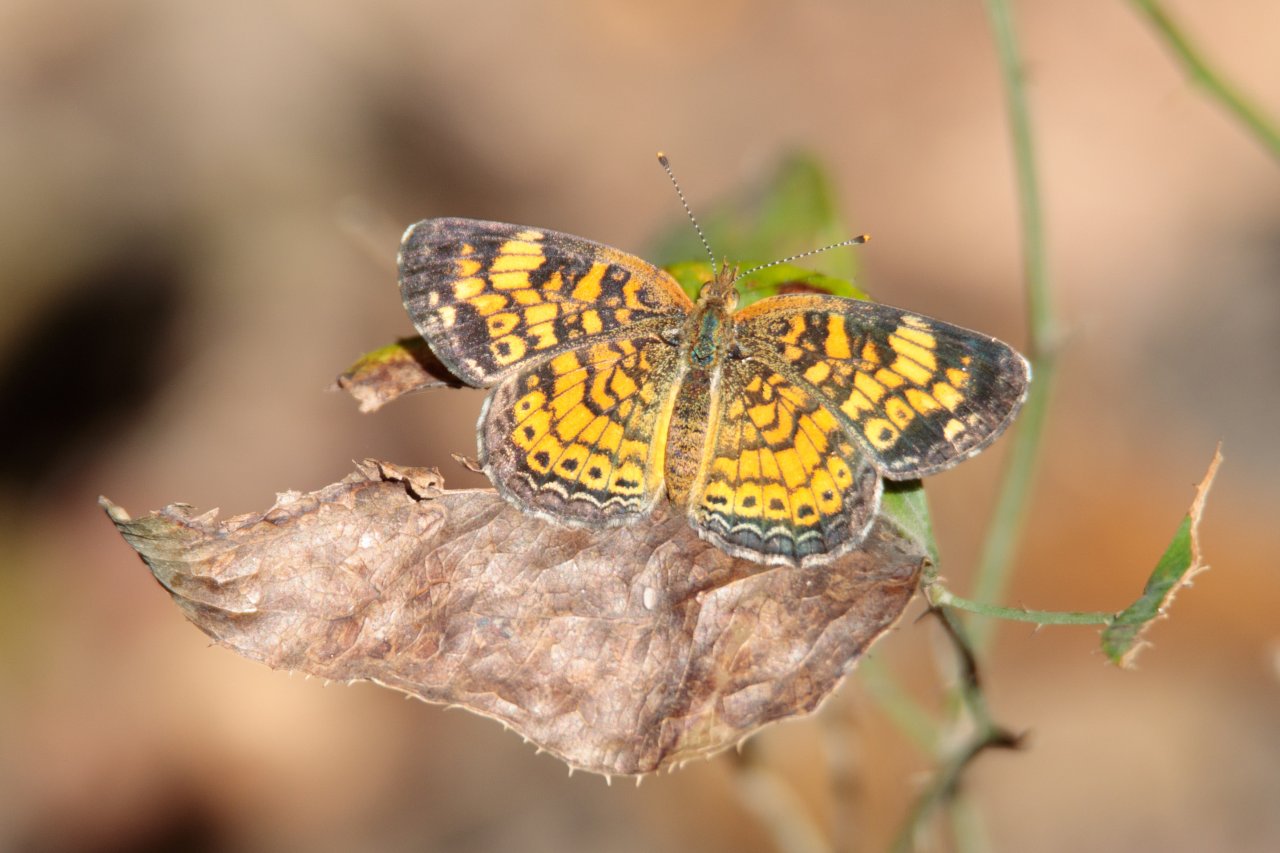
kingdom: Animalia
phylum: Arthropoda
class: Insecta
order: Lepidoptera
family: Nymphalidae
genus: Phyciodes
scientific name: Phyciodes tharos
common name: Pearl Crescent
